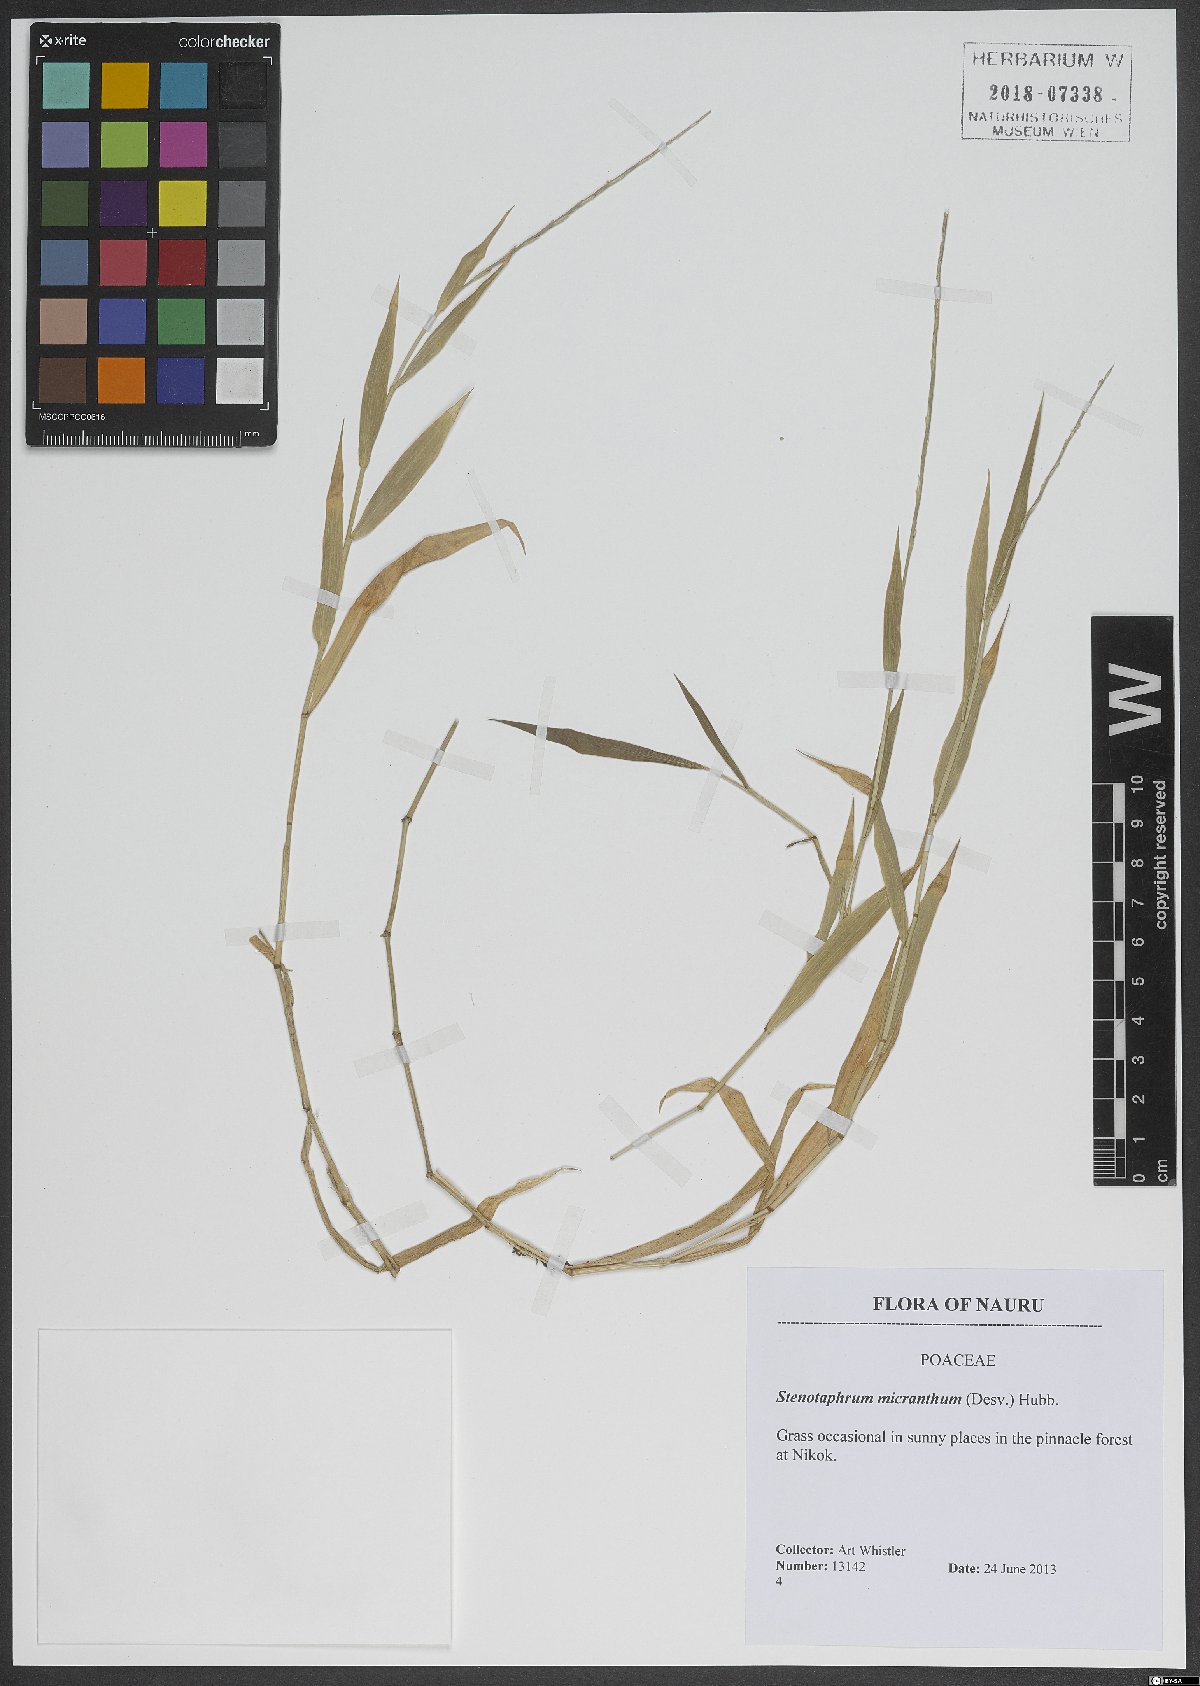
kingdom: Plantae
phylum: Tracheophyta
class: Liliopsida
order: Poales
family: Poaceae
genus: Stenotaphrum
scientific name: Stenotaphrum micranthum
